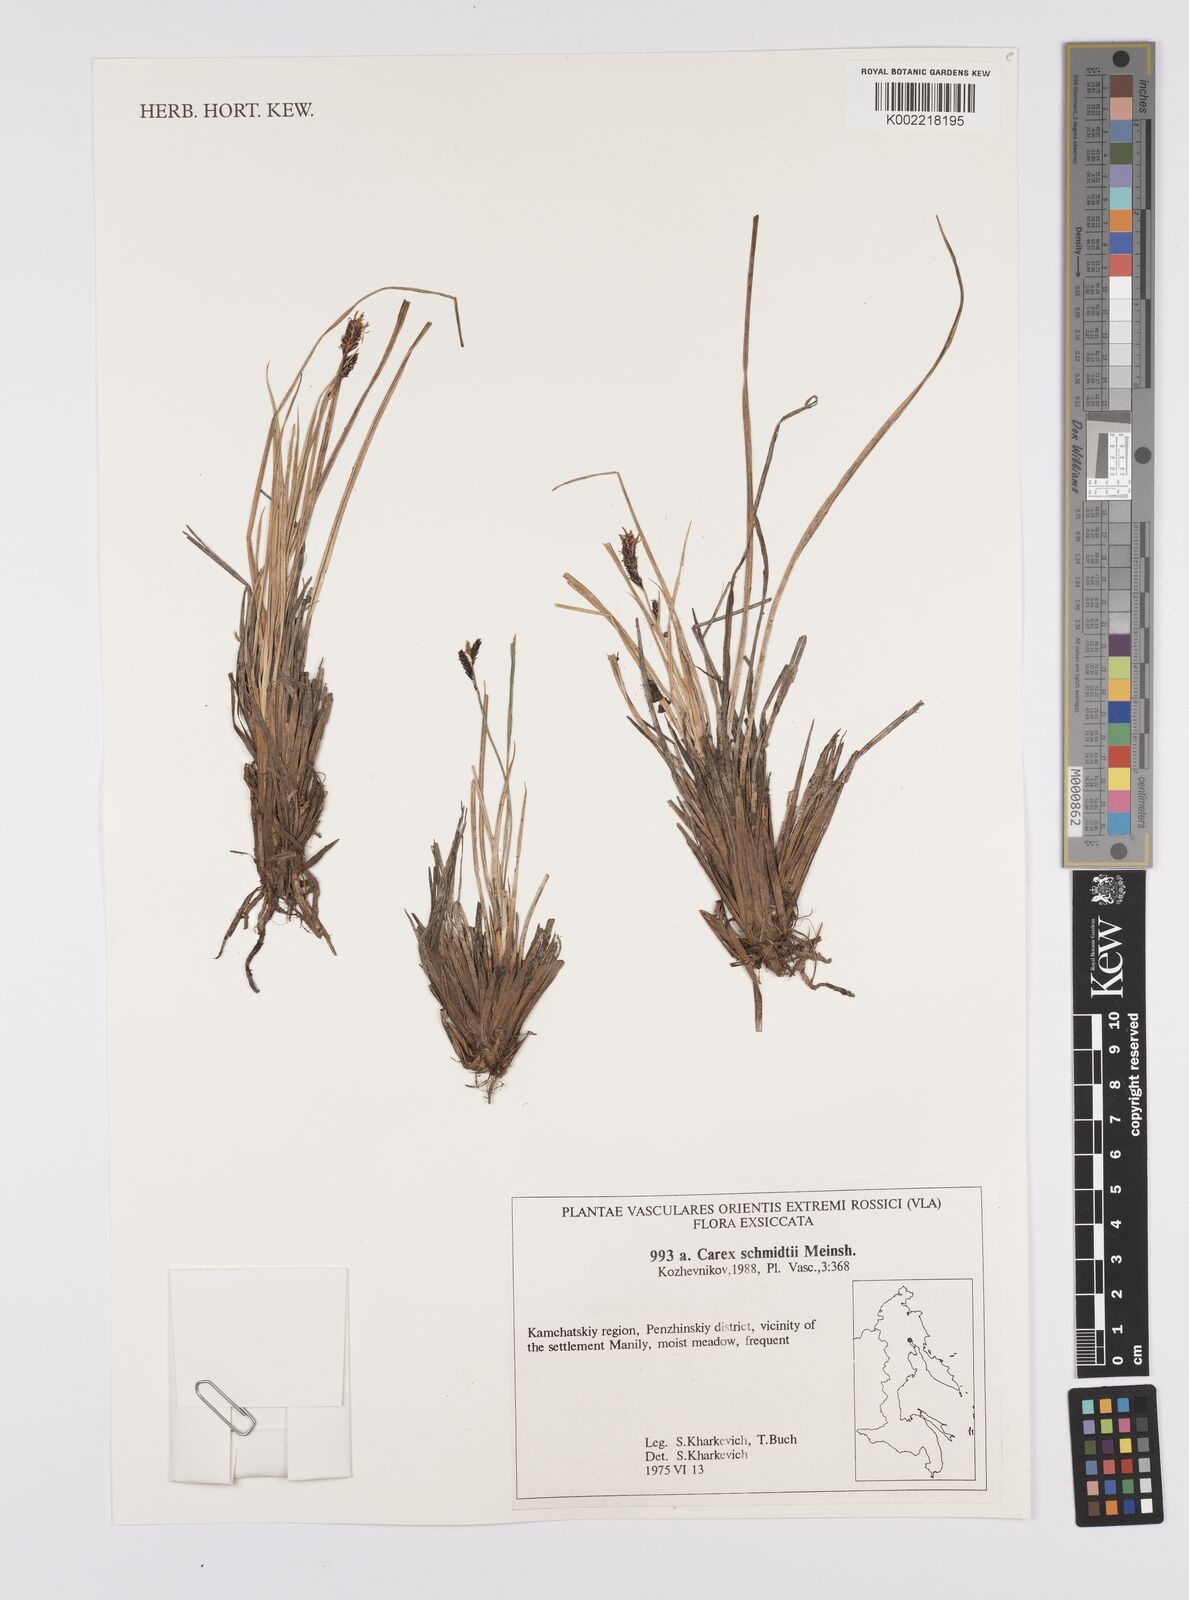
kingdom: Plantae
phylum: Tracheophyta
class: Liliopsida
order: Poales
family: Cyperaceae
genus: Carex
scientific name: Carex schmidtii
